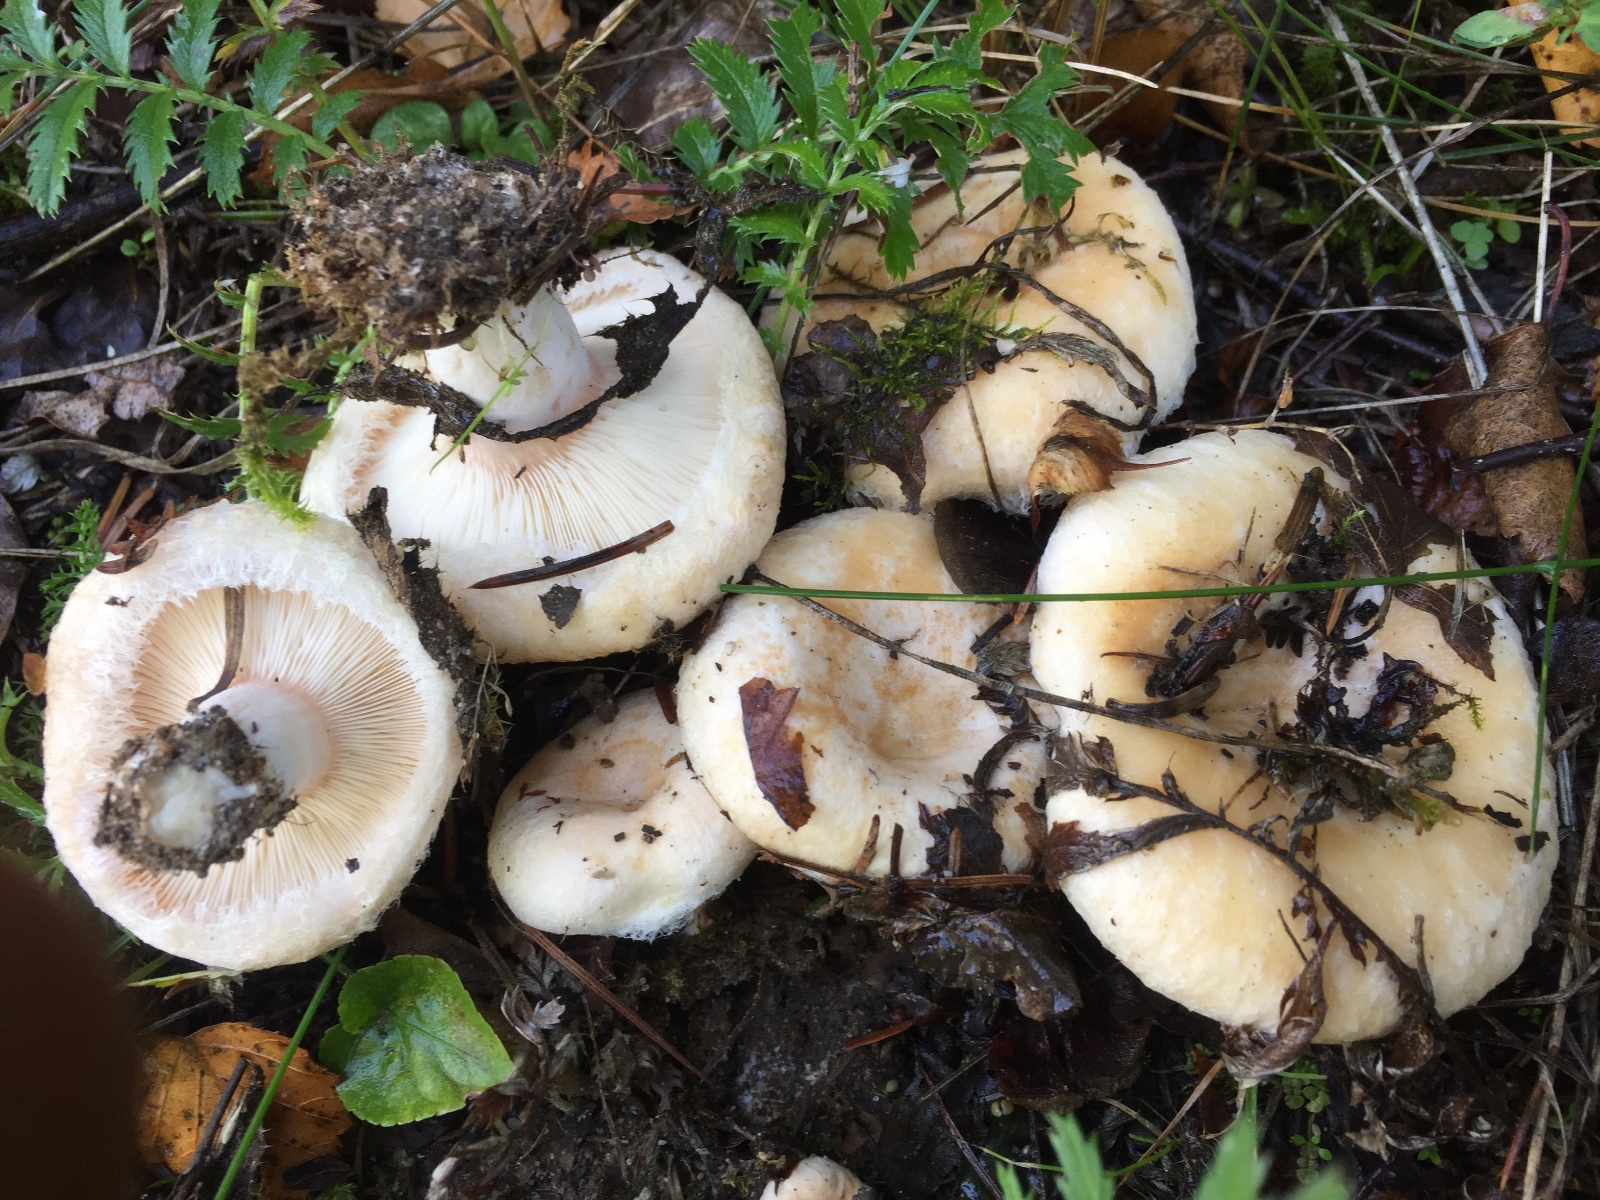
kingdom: Fungi
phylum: Basidiomycota
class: Agaricomycetes
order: Russulales
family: Russulaceae
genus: Lactarius
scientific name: Lactarius pubescens
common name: dunet mælkehat
